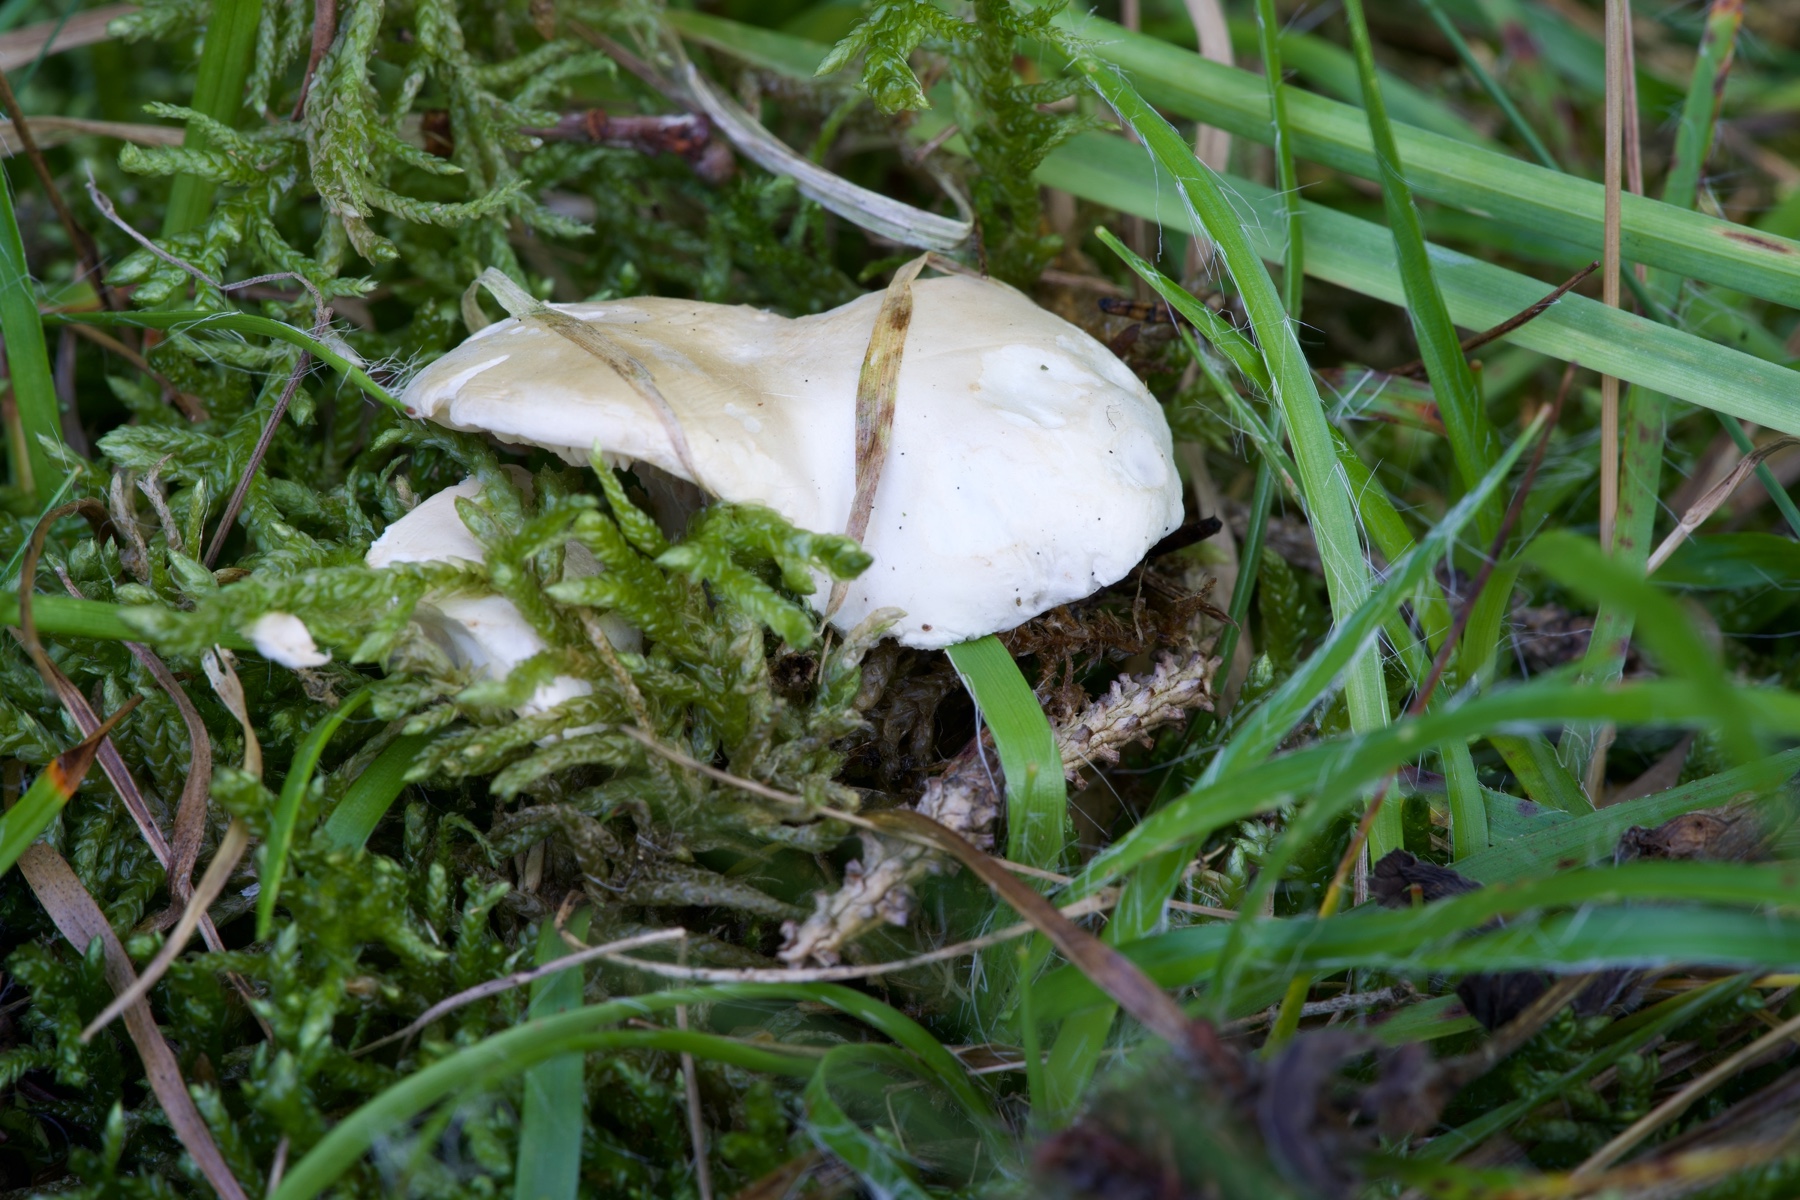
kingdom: Fungi
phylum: Basidiomycota
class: Agaricomycetes
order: Agaricales
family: Entolomataceae
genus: Clitopilus
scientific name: Clitopilus prunulus
